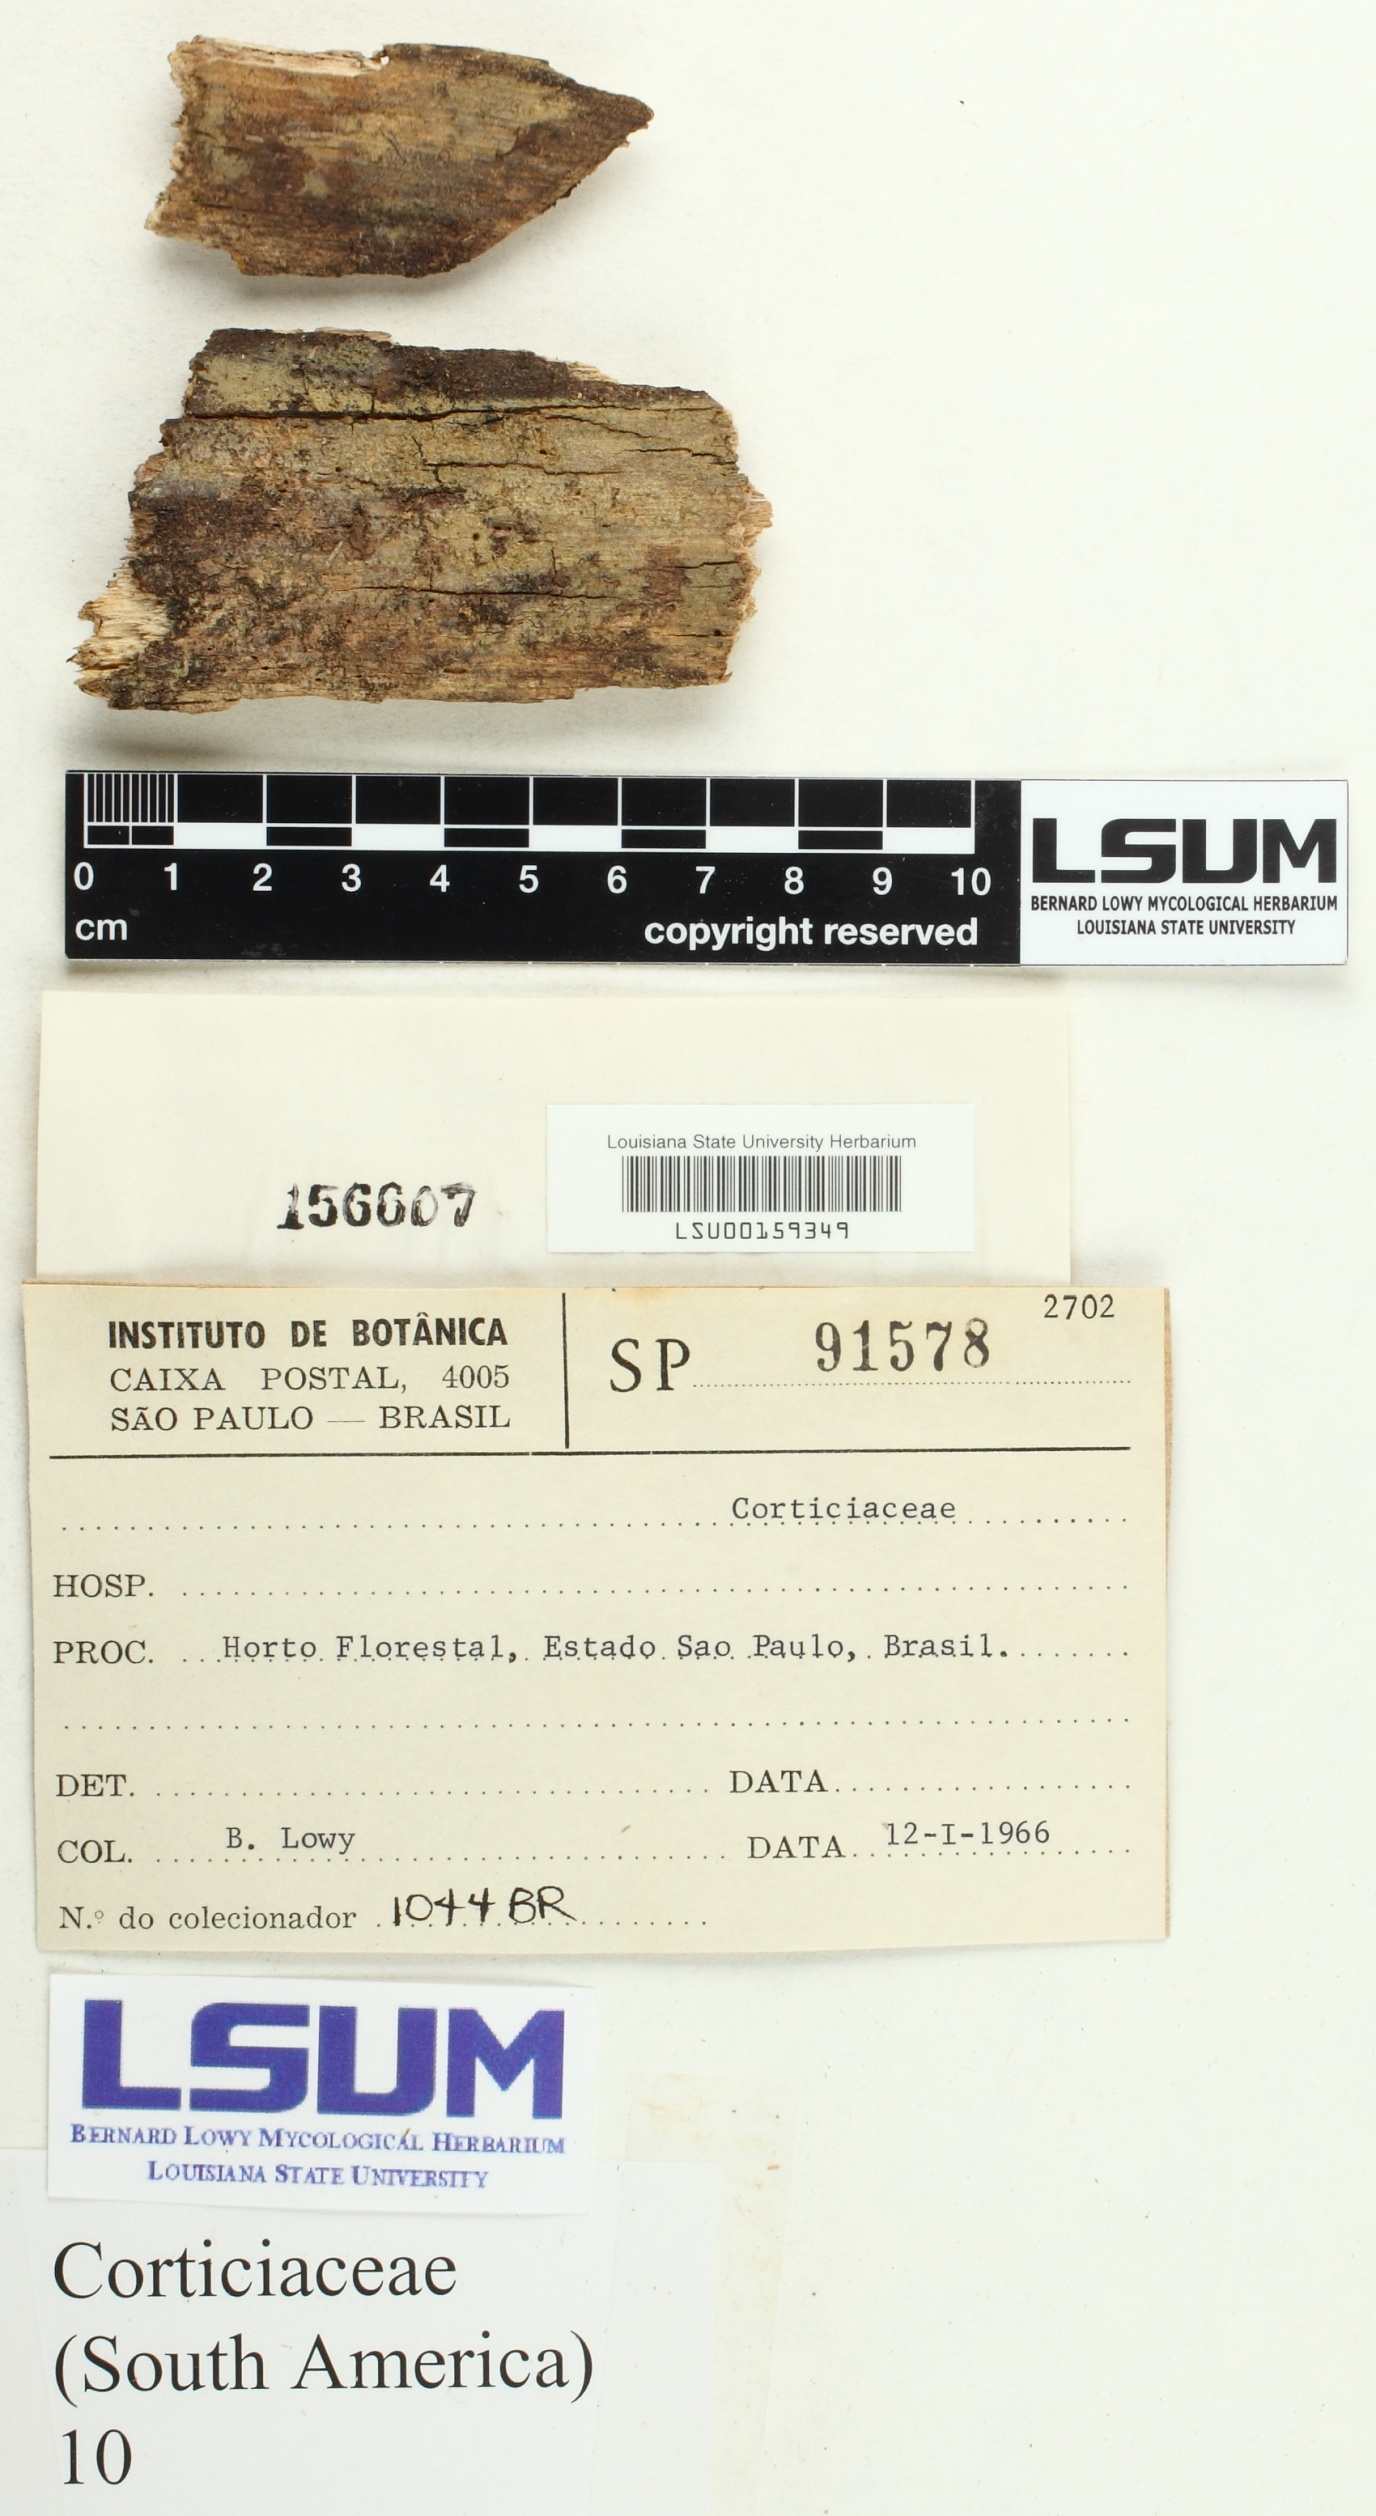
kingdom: Fungi
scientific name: Fungi
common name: Fungi
